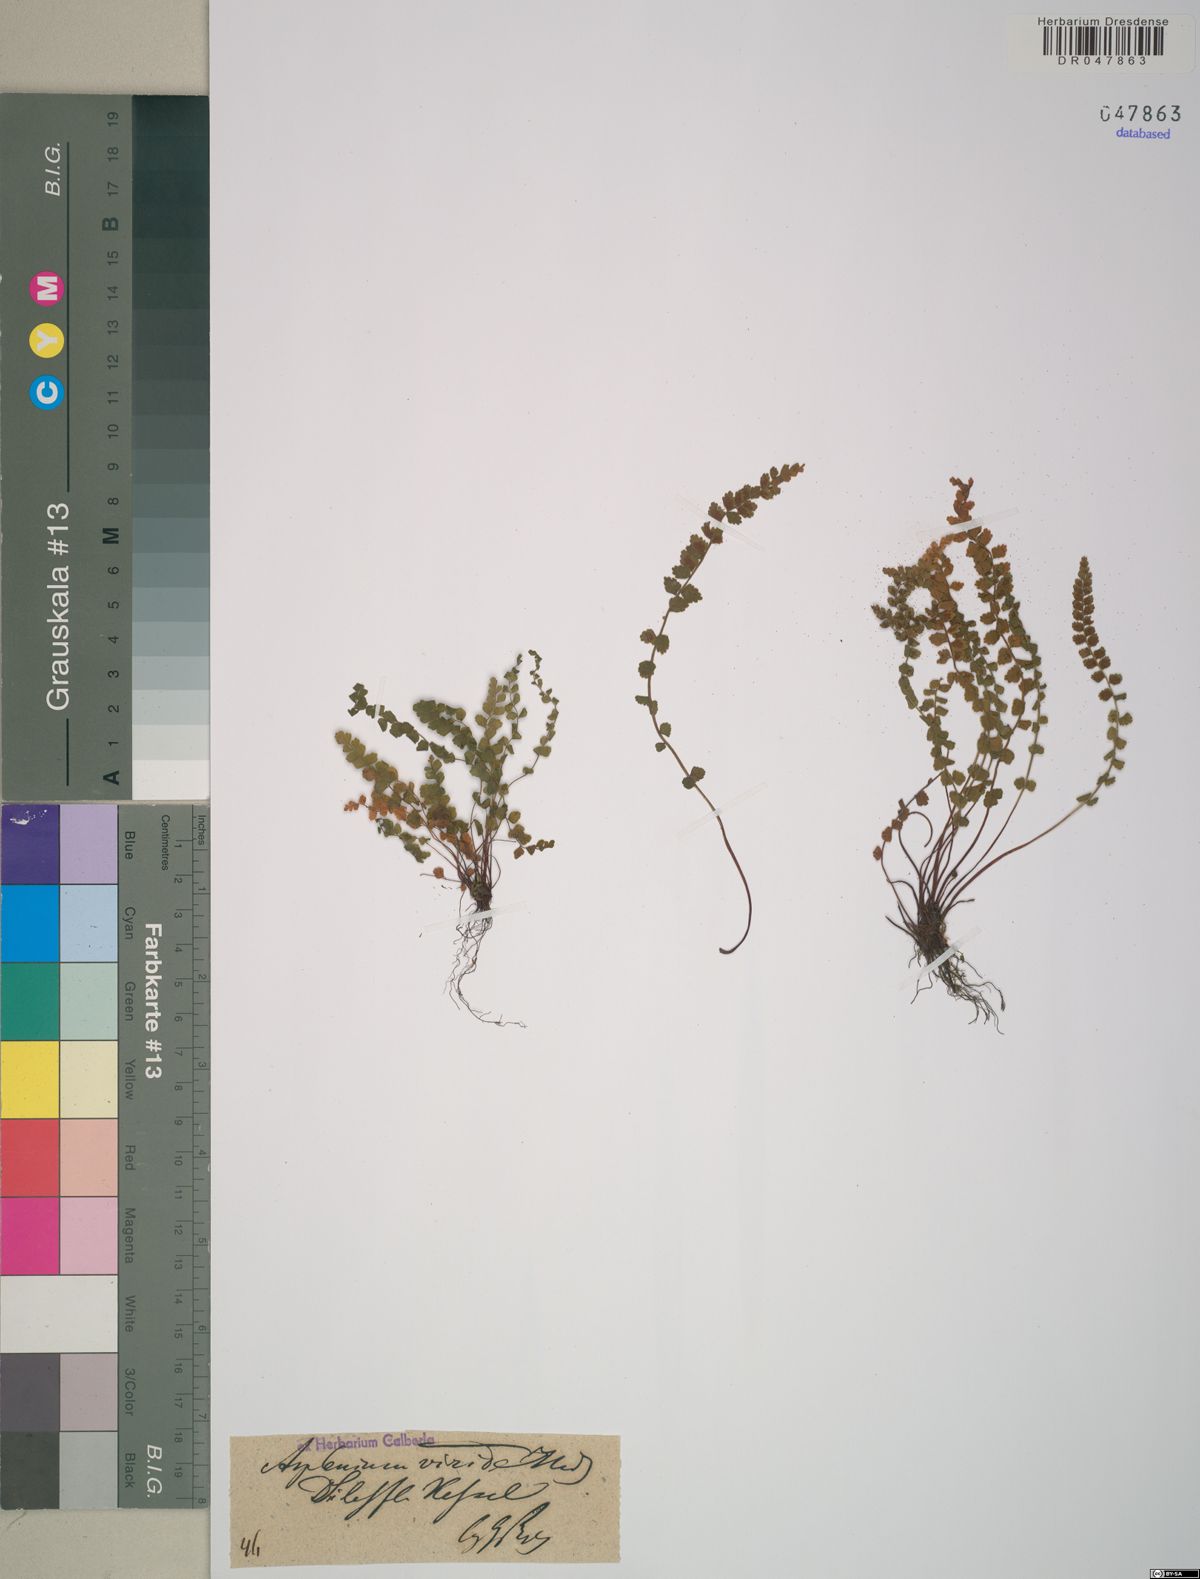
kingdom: Plantae
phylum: Tracheophyta
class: Polypodiopsida
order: Polypodiales
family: Aspleniaceae
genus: Asplenium
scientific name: Asplenium viride
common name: Green spleenwort
